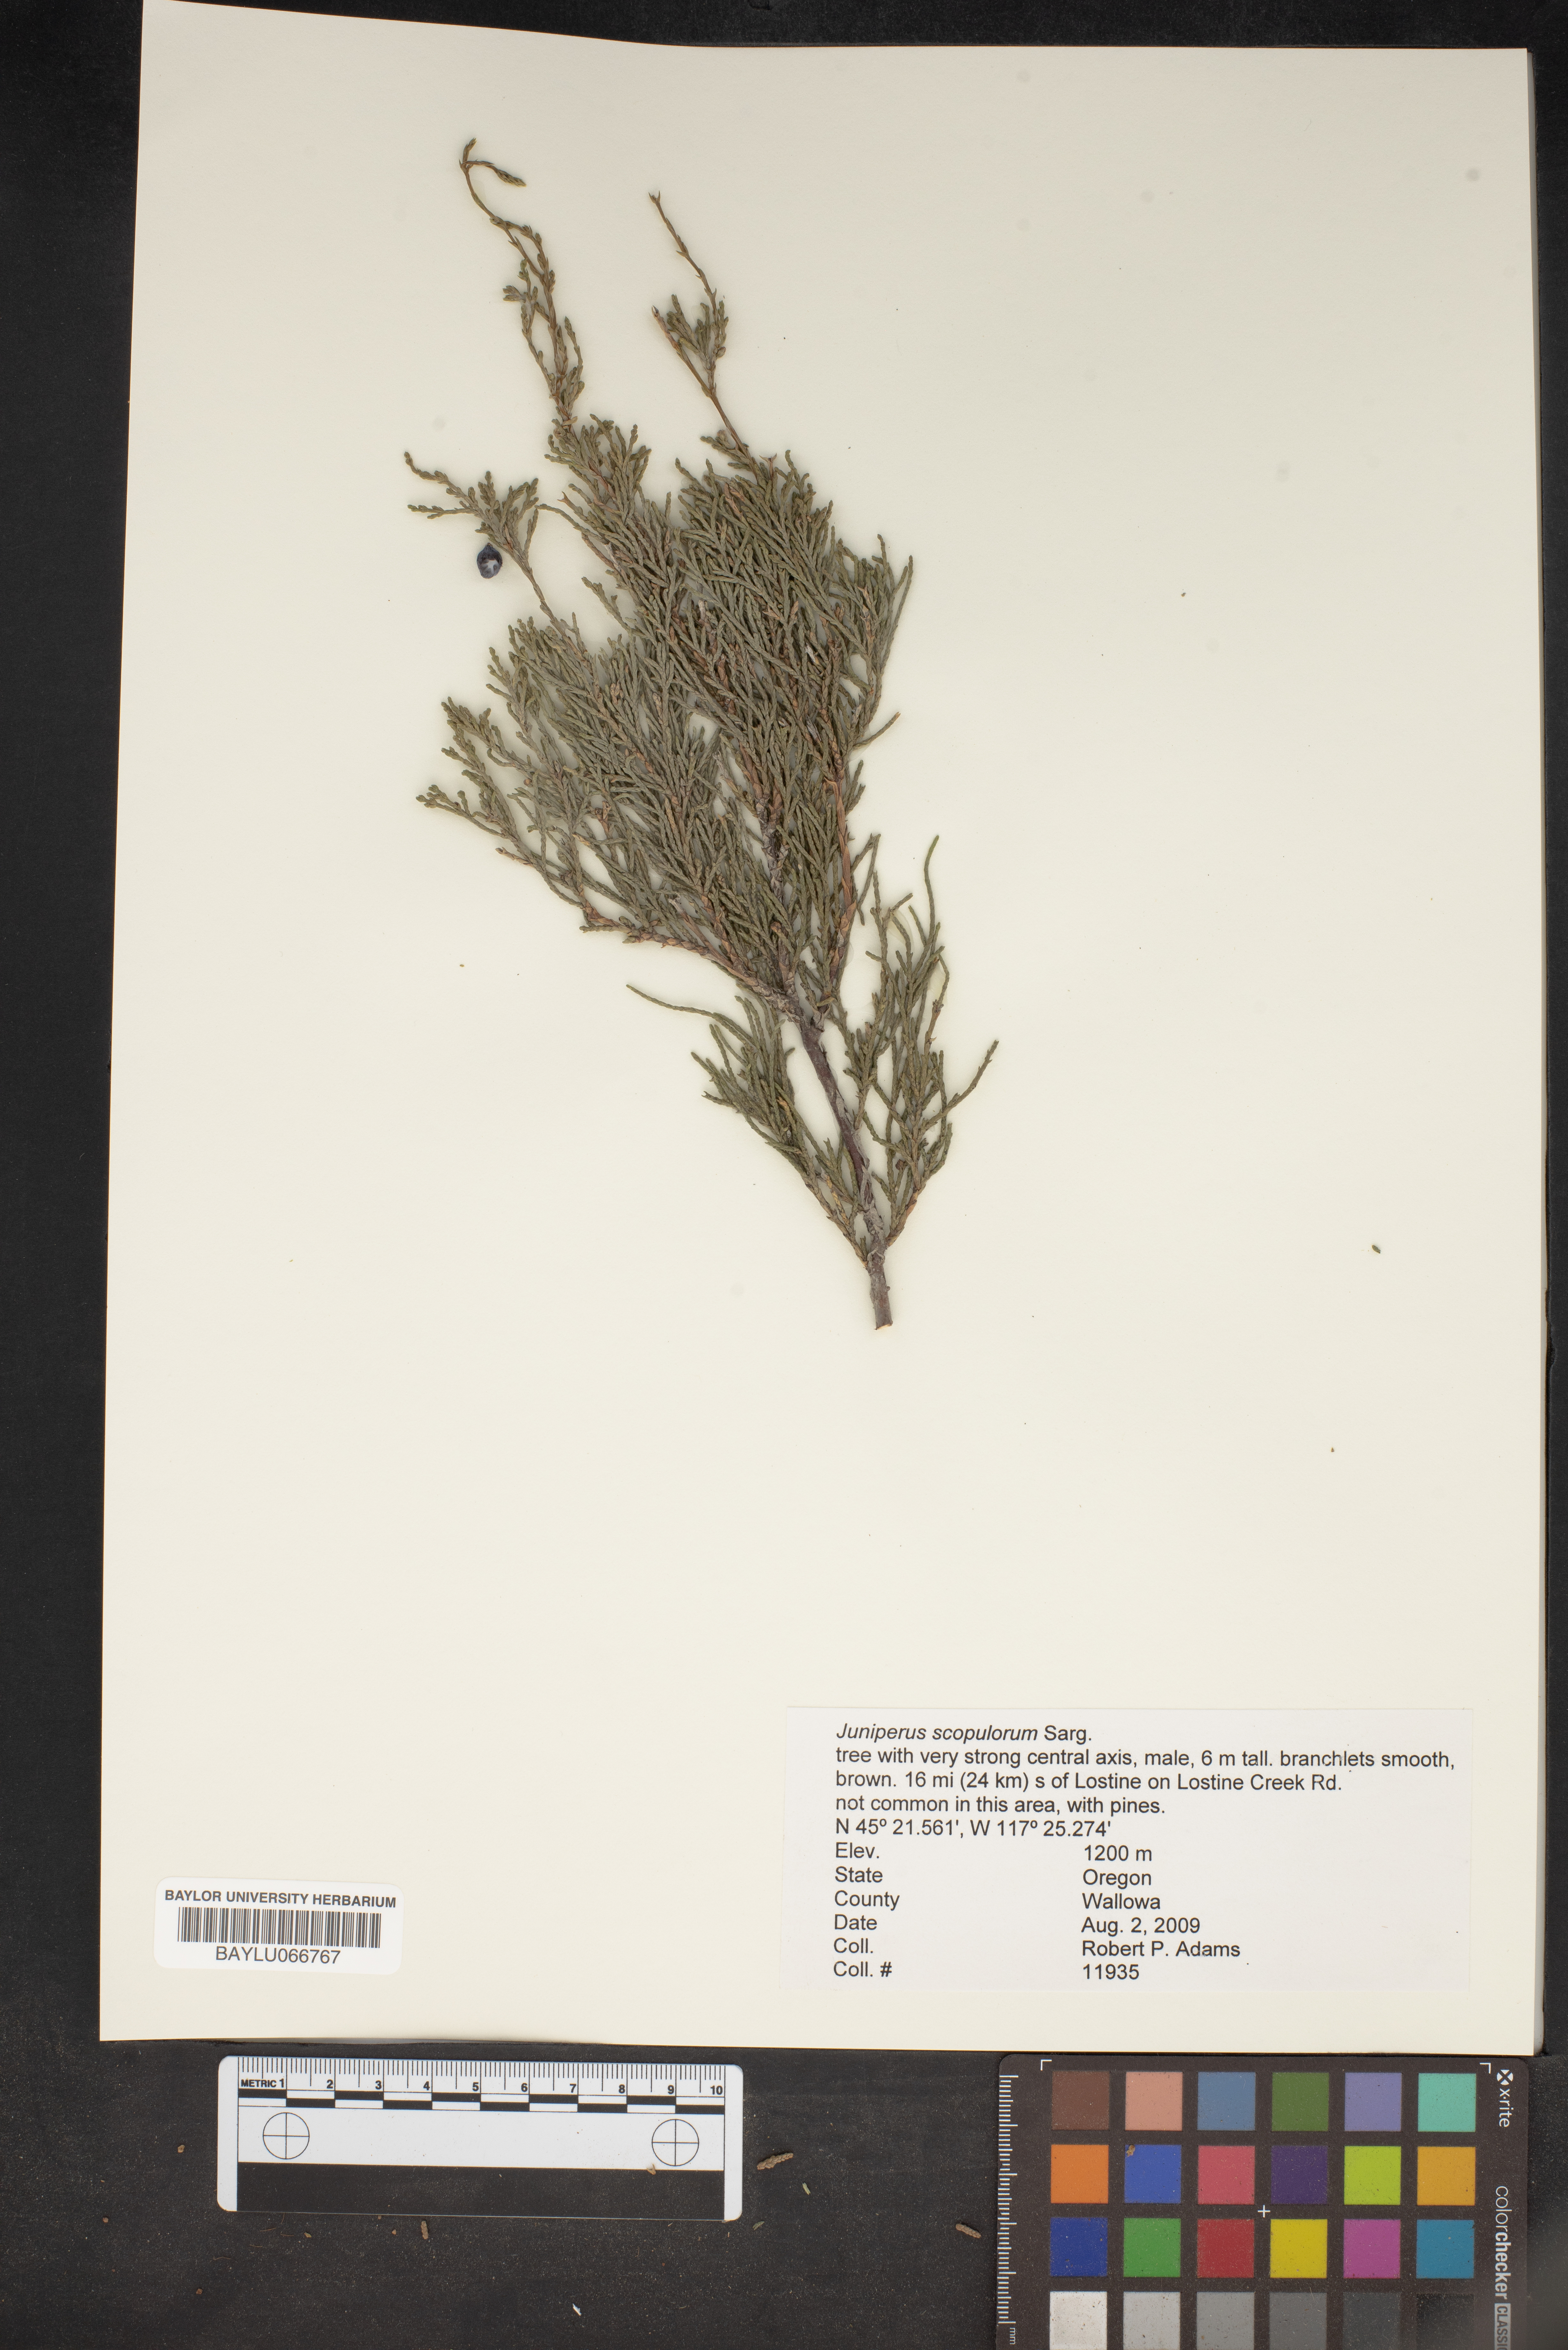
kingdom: Plantae
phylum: Tracheophyta
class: Pinopsida
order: Pinales
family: Cupressaceae
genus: Juniperus
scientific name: Juniperus scopulorum
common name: Rocky mountain juniper
